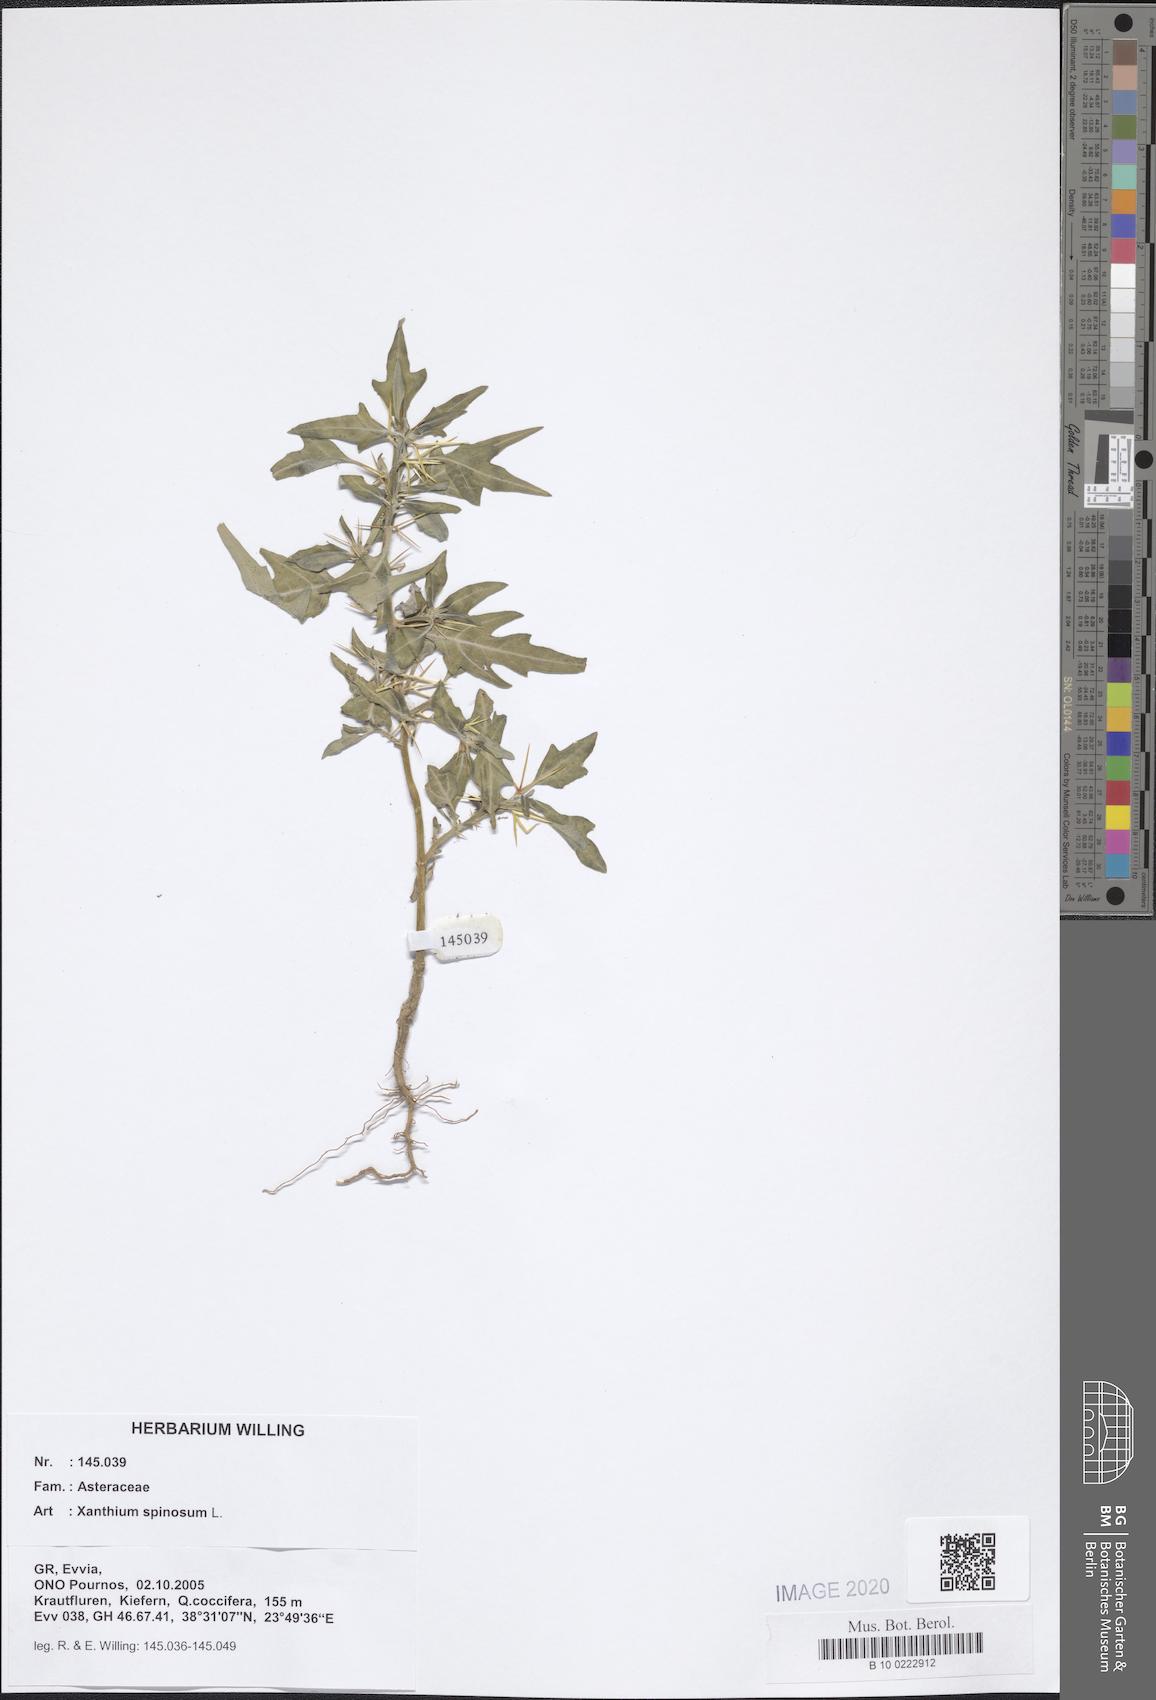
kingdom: Plantae
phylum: Tracheophyta
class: Magnoliopsida
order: Asterales
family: Asteraceae
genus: Xanthium
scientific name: Xanthium spinosum
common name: Spiny cocklebur
